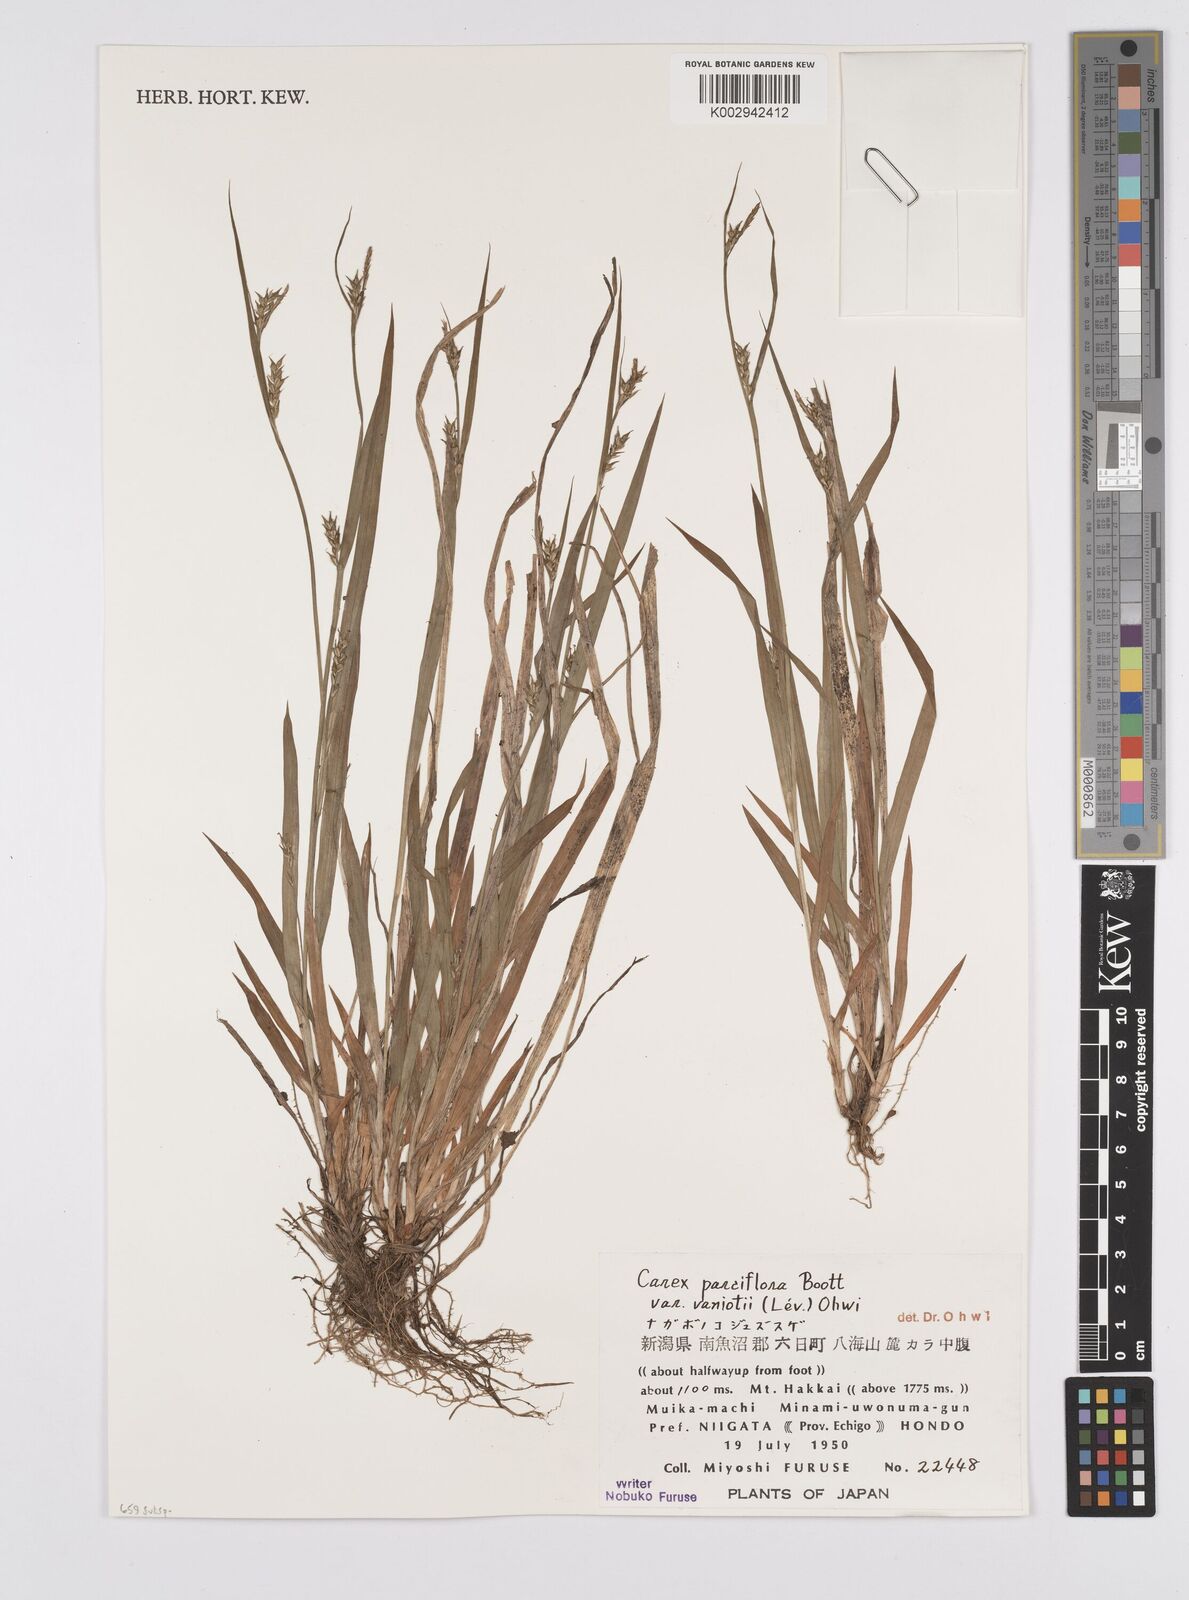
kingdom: Plantae
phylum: Tracheophyta
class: Liliopsida
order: Poales
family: Cyperaceae
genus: Carex
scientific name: Carex parciflora
